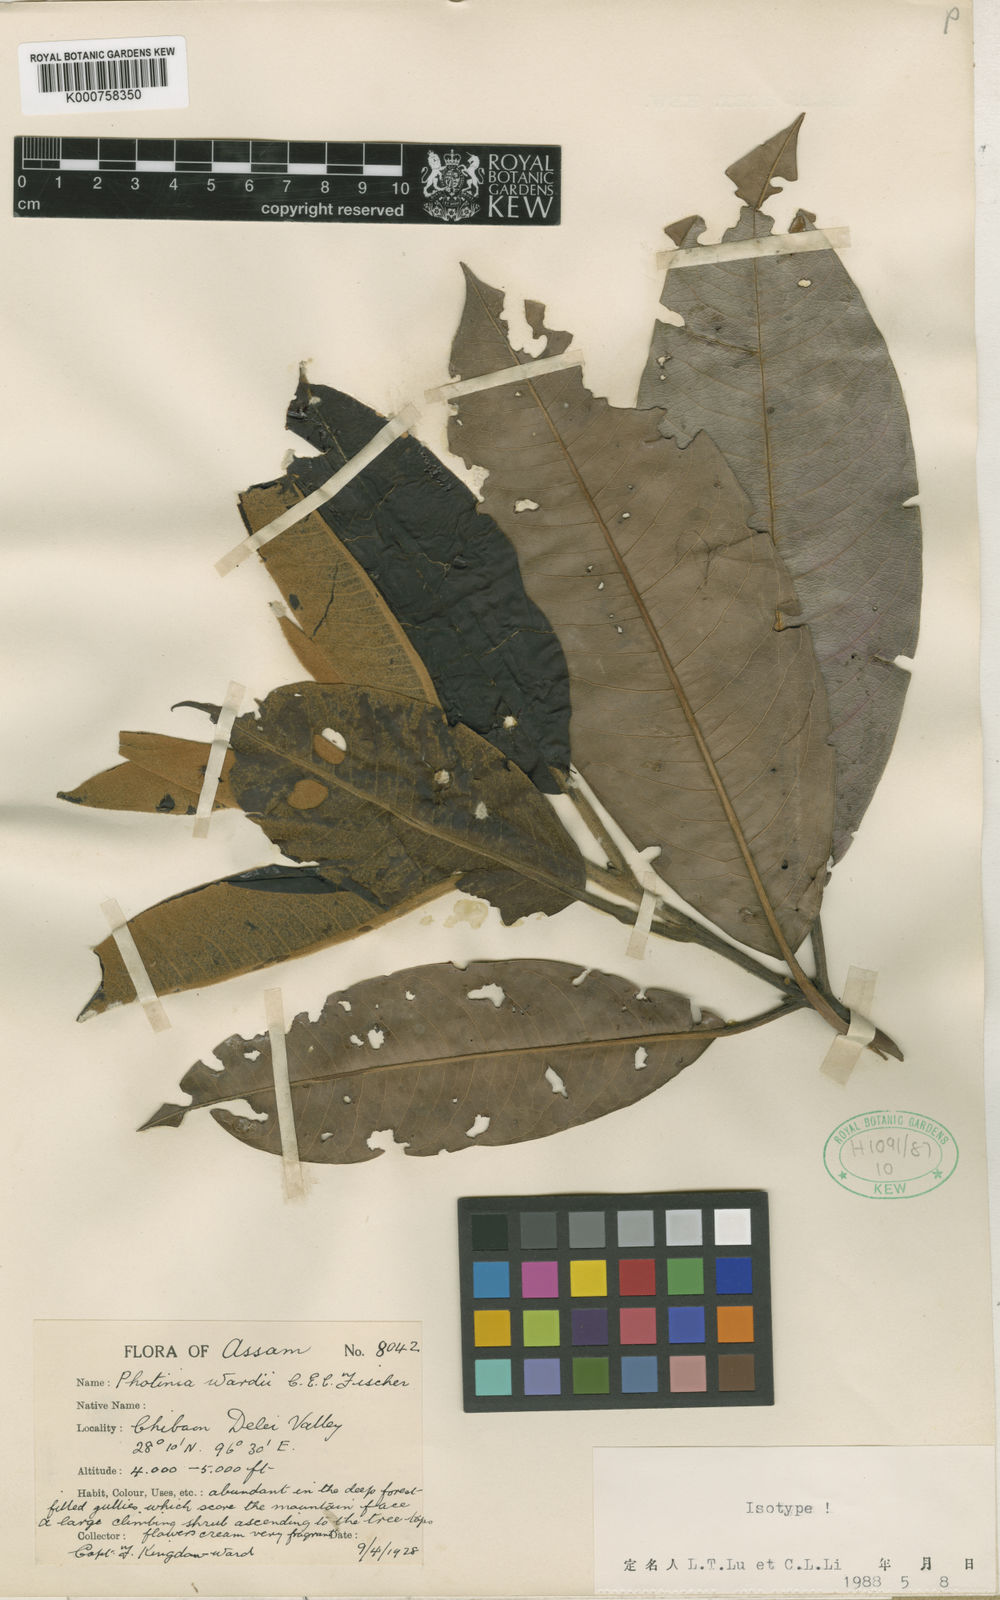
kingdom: Plantae
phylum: Tracheophyta
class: Magnoliopsida
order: Rosales
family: Rosaceae
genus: Photinia
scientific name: Photinia integrifolia
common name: Himalayan chokeberry
